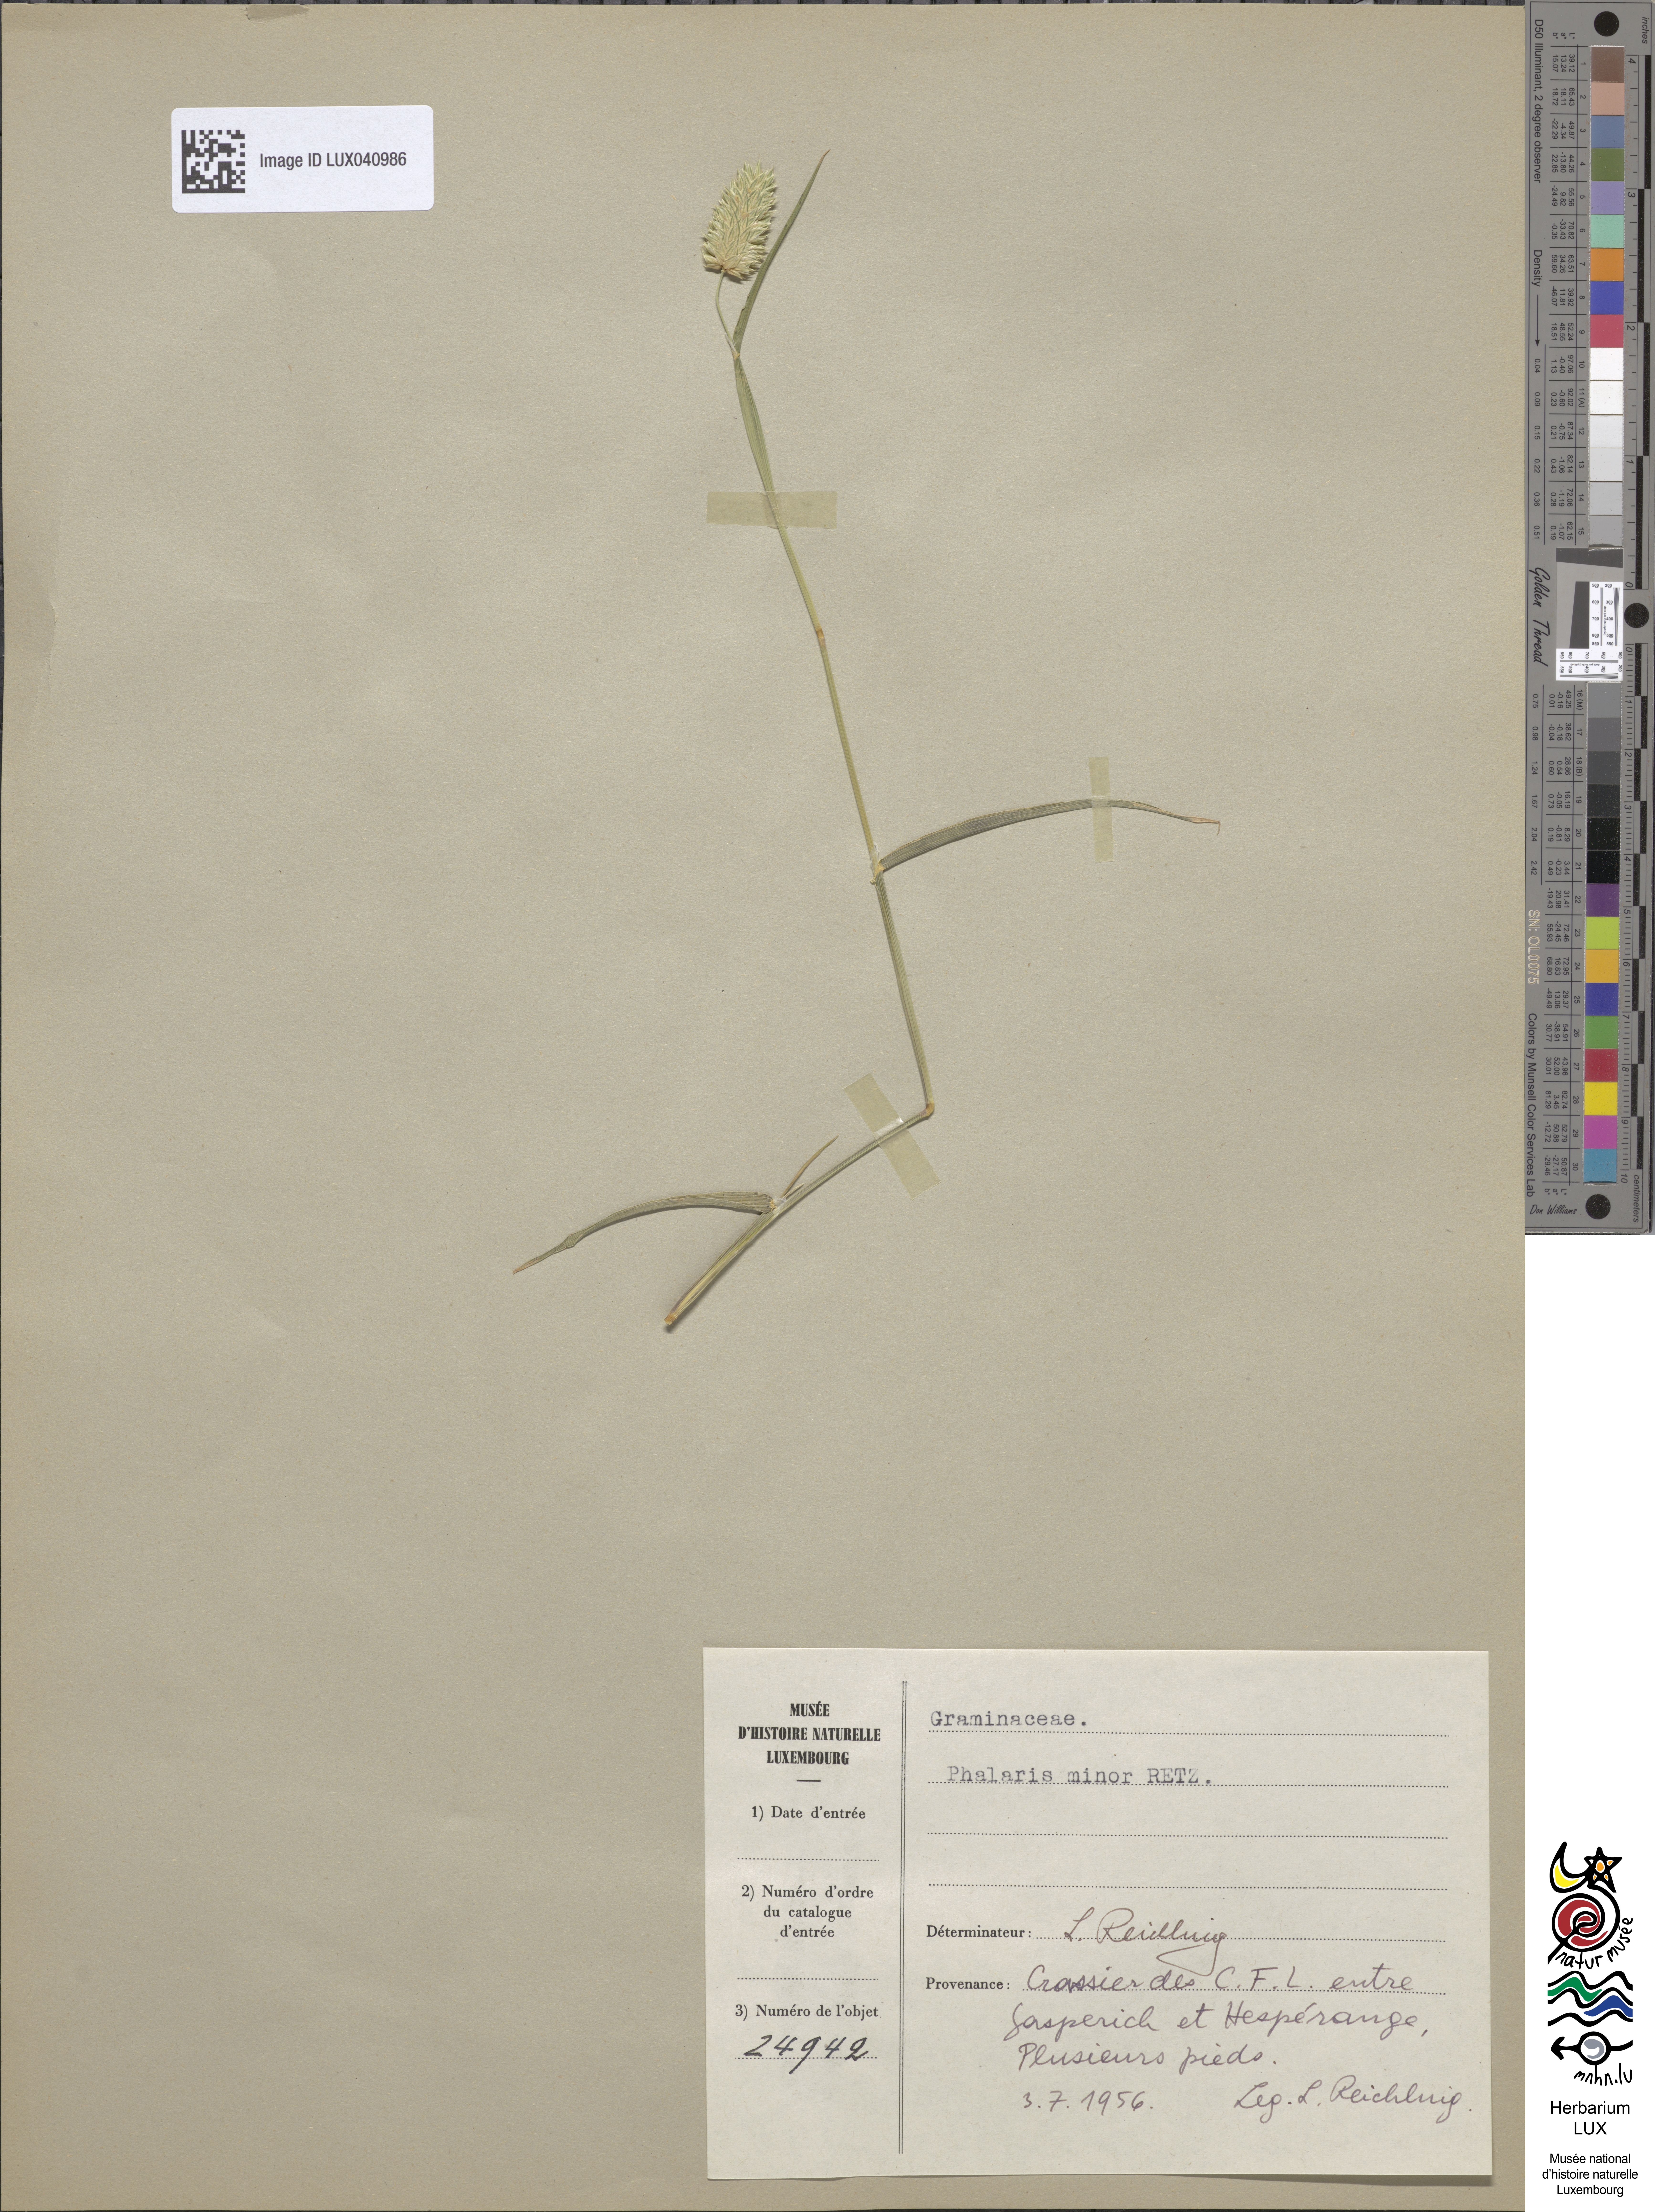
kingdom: Plantae
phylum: Tracheophyta
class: Liliopsida
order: Poales
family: Poaceae
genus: Phalaris
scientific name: Phalaris minor
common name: Littleseed canarygrass
